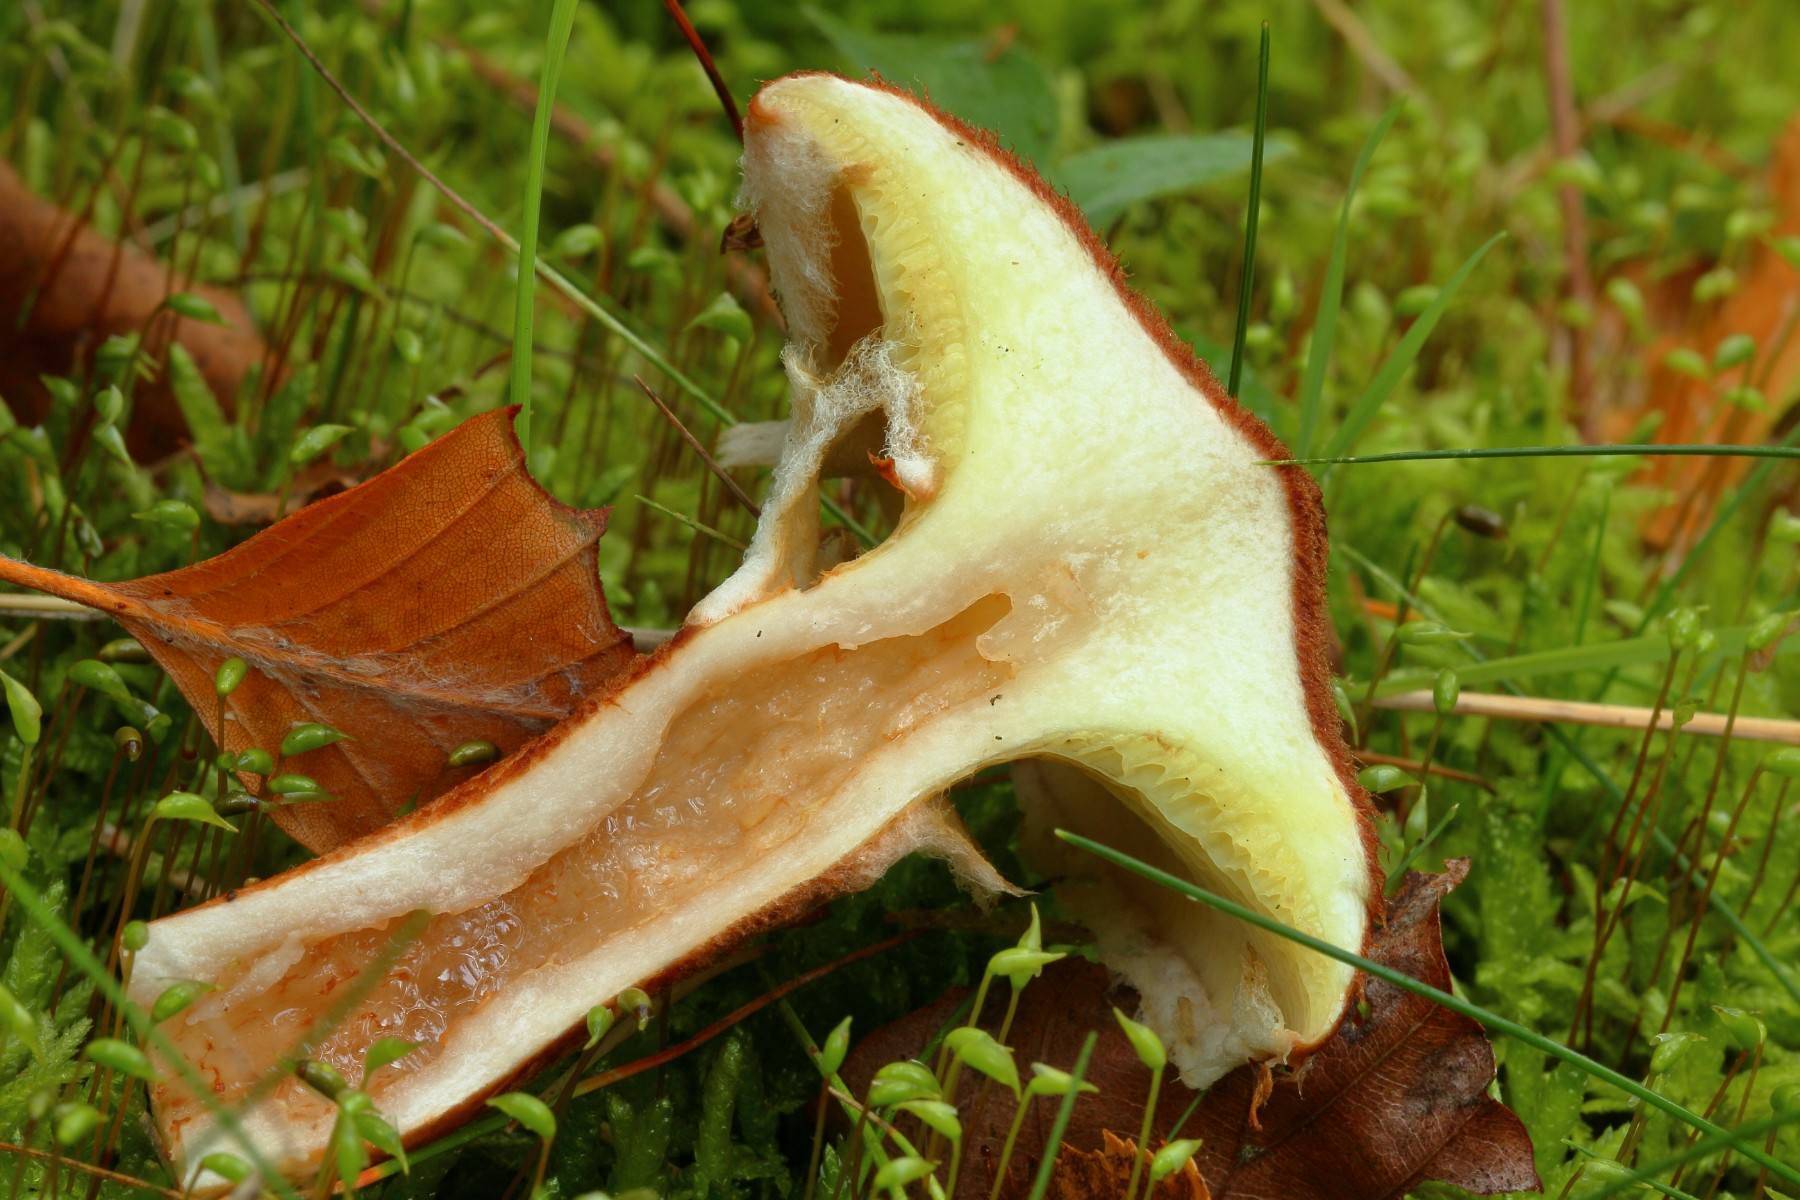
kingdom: Fungi
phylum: Basidiomycota
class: Agaricomycetes
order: Boletales
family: Suillaceae
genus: Suillus
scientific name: Suillus cavipes
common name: hulstokket slimrørhat
